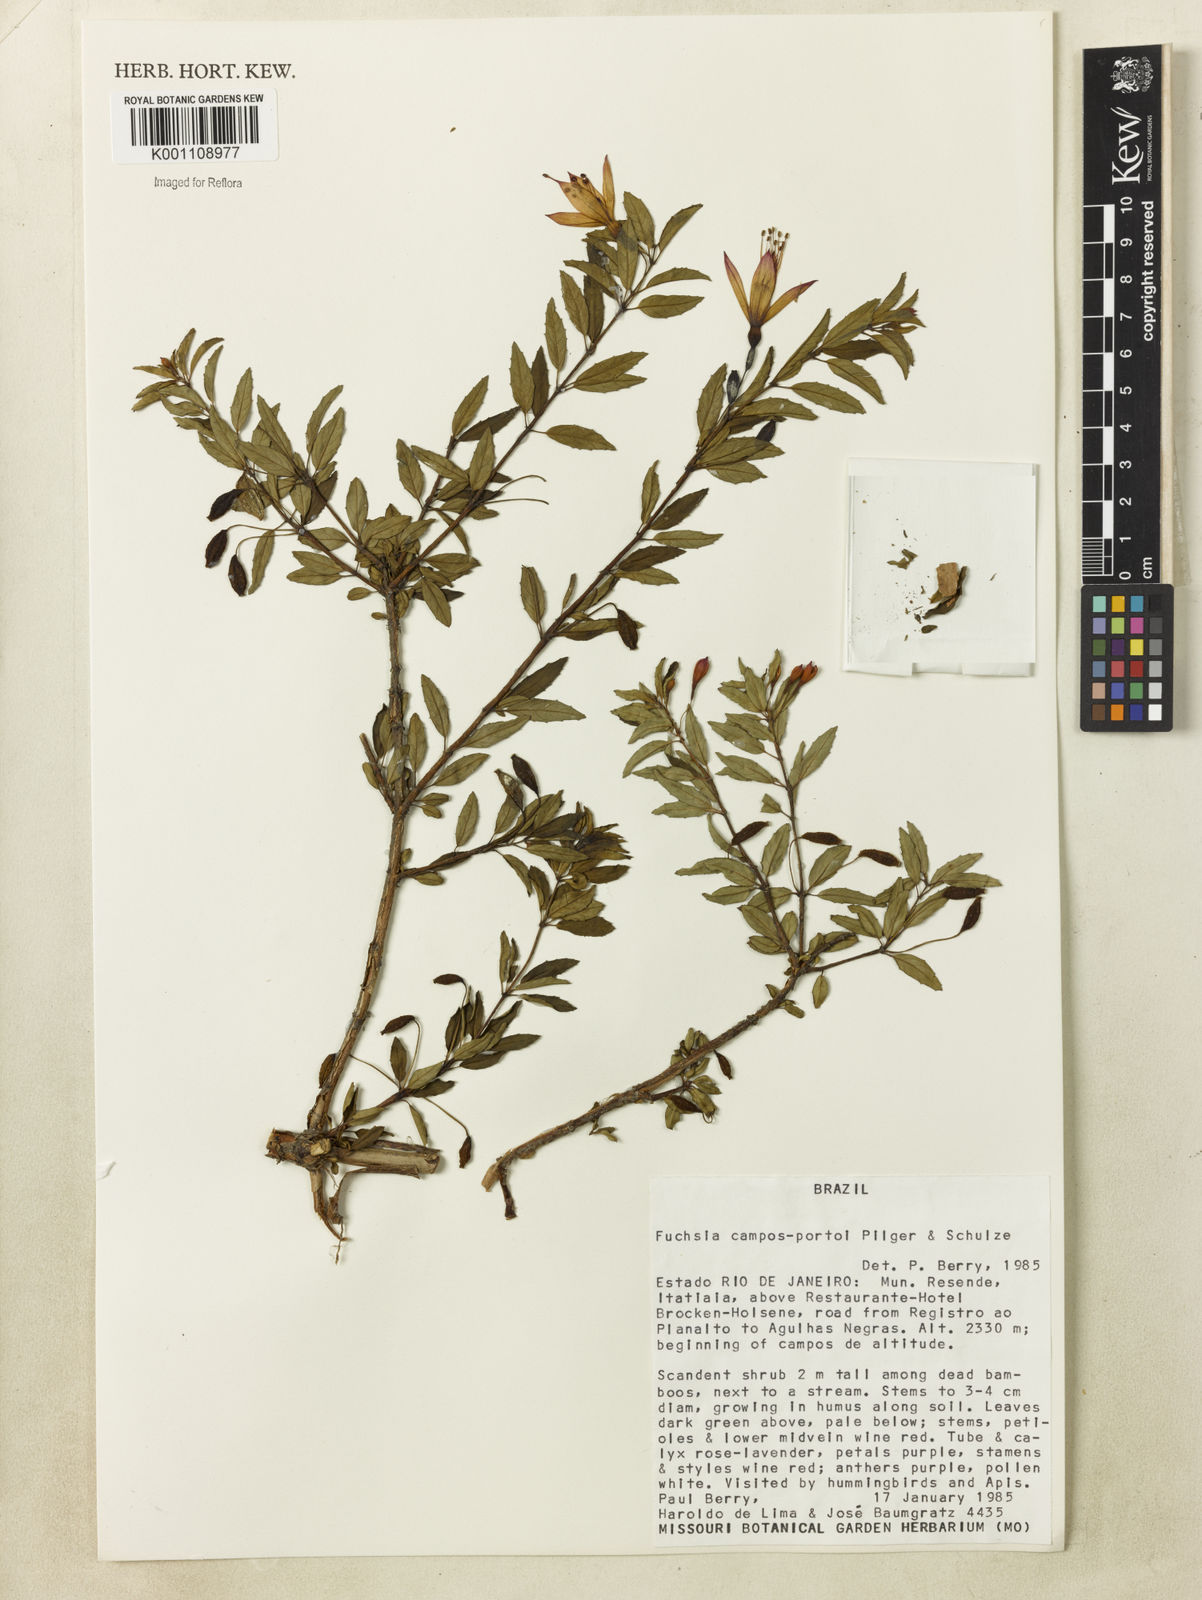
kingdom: Plantae
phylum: Tracheophyta
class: Magnoliopsida
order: Myrtales
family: Onagraceae
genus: Fuchsia
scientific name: Fuchsia campos-portoi
